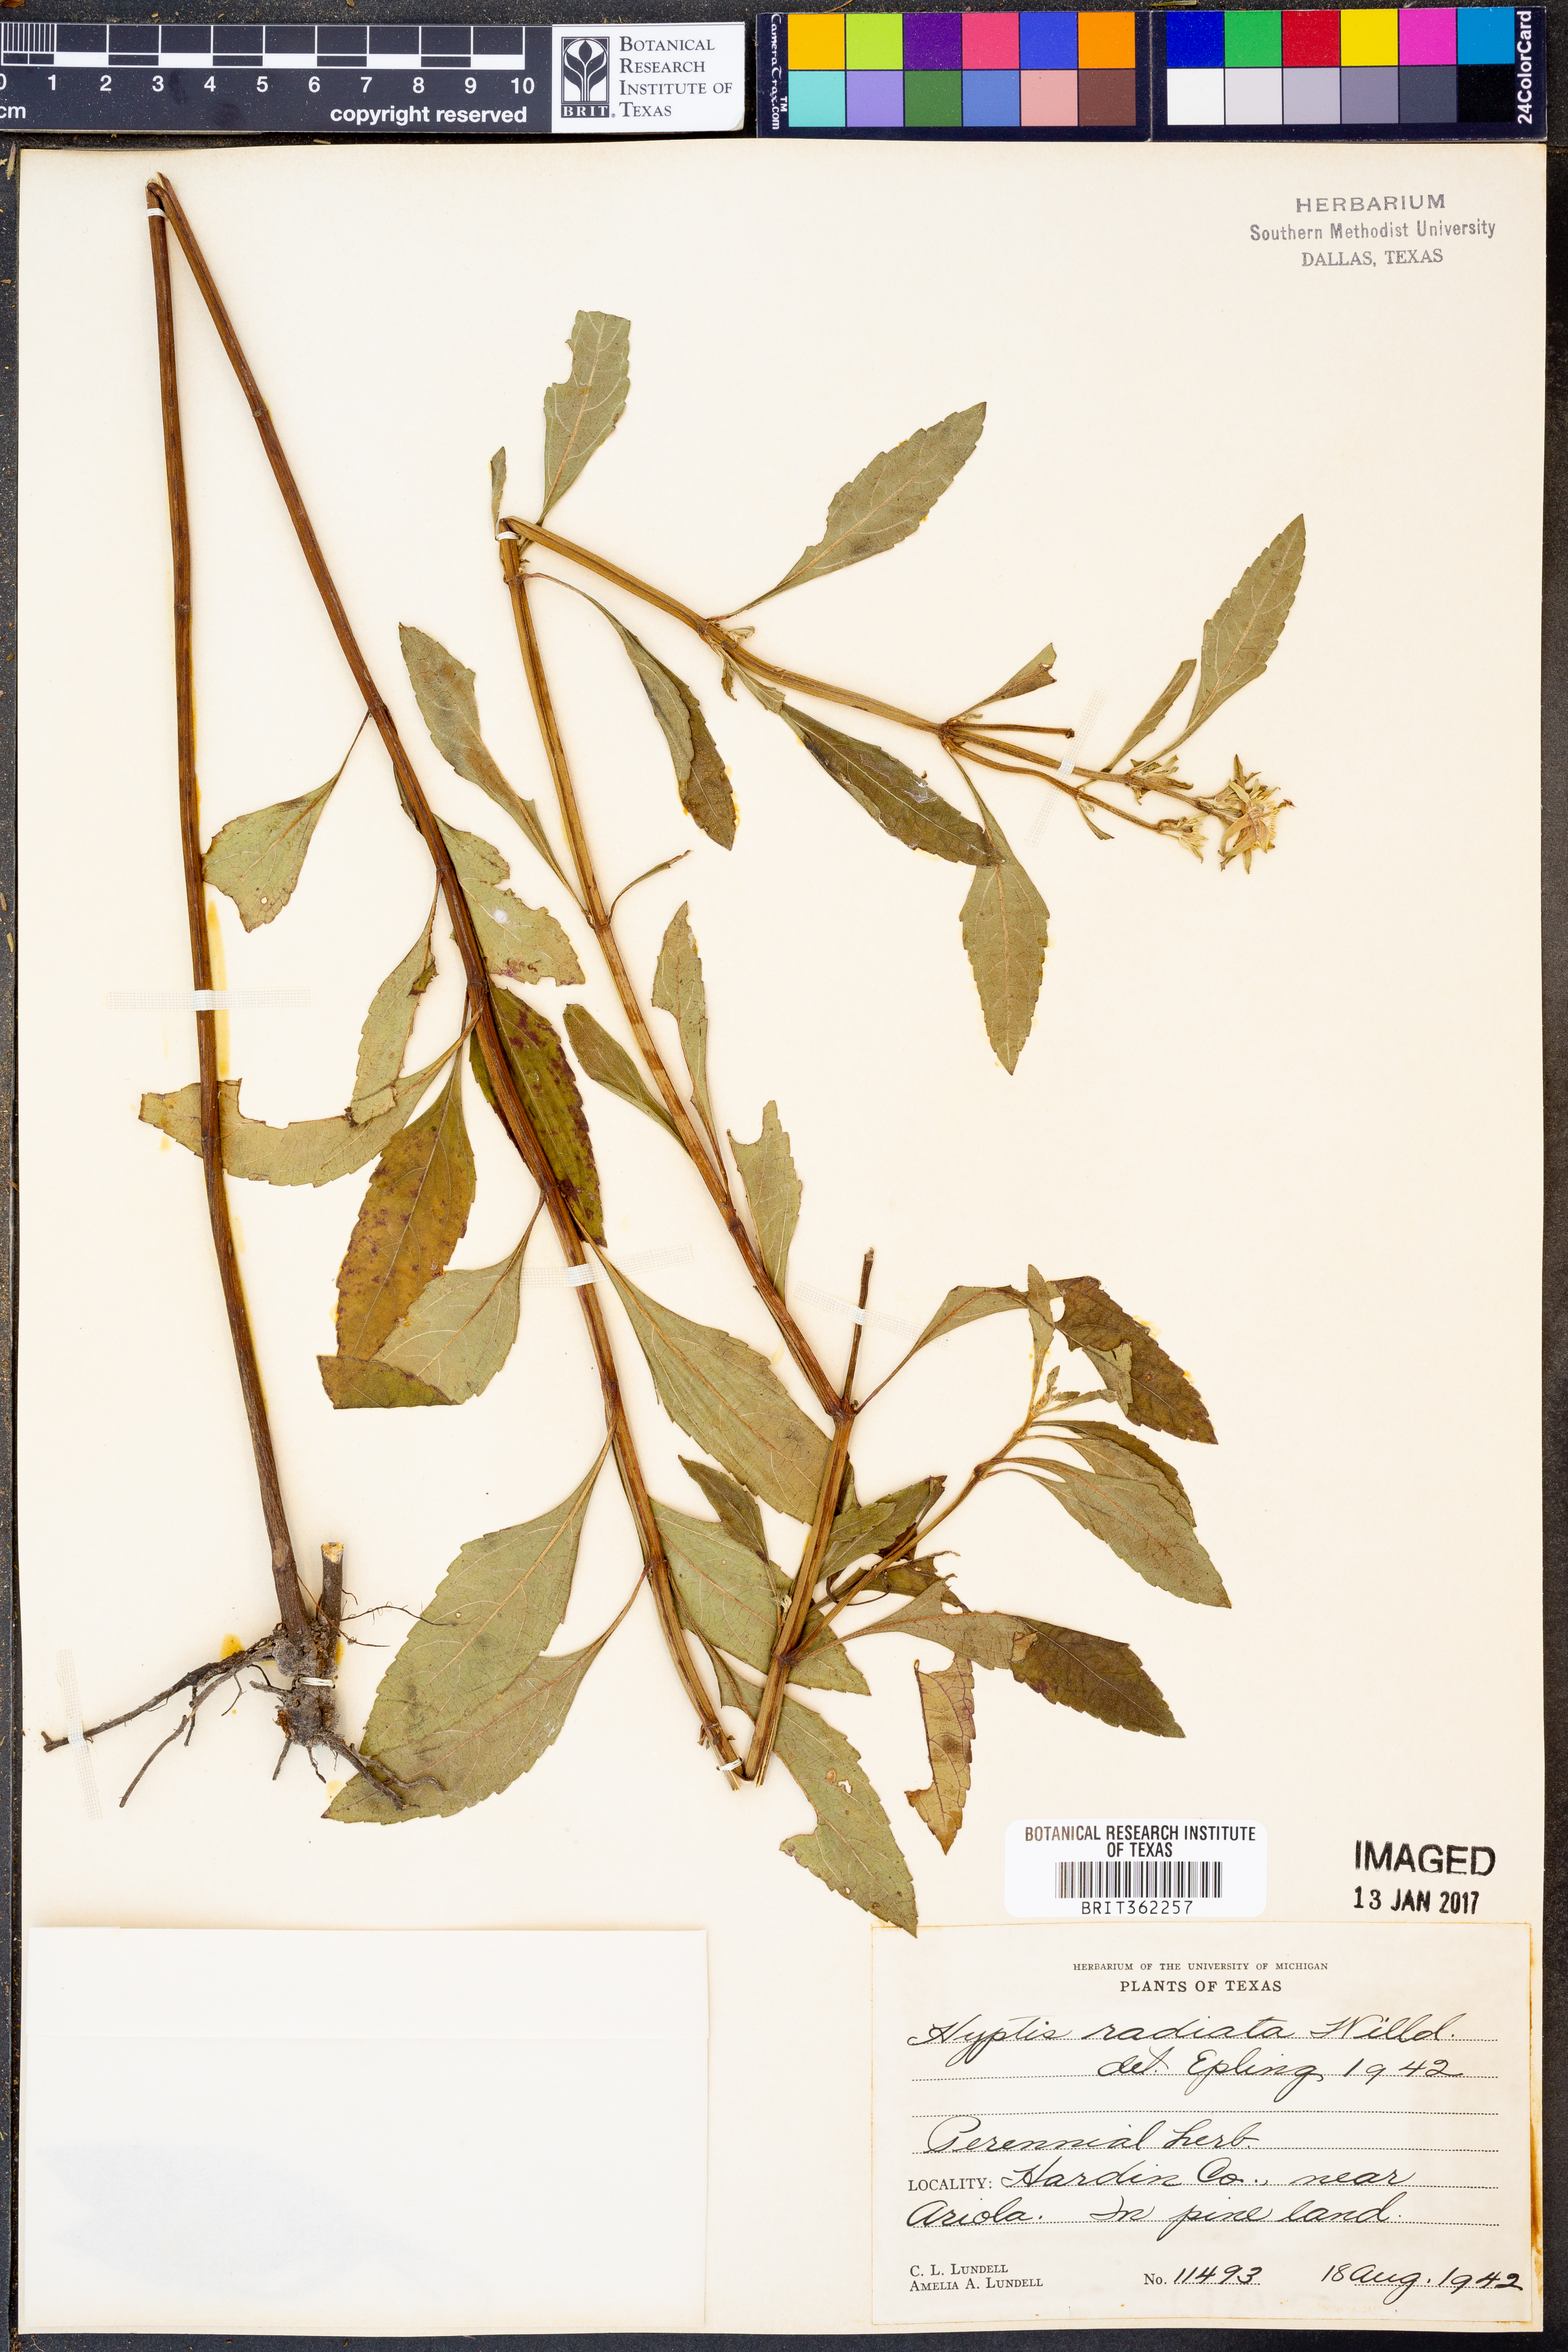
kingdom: Plantae
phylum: Tracheophyta
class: Magnoliopsida
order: Lamiales
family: Lamiaceae
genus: Hyptis
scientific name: Hyptis alata
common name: Cluster bush-mint
